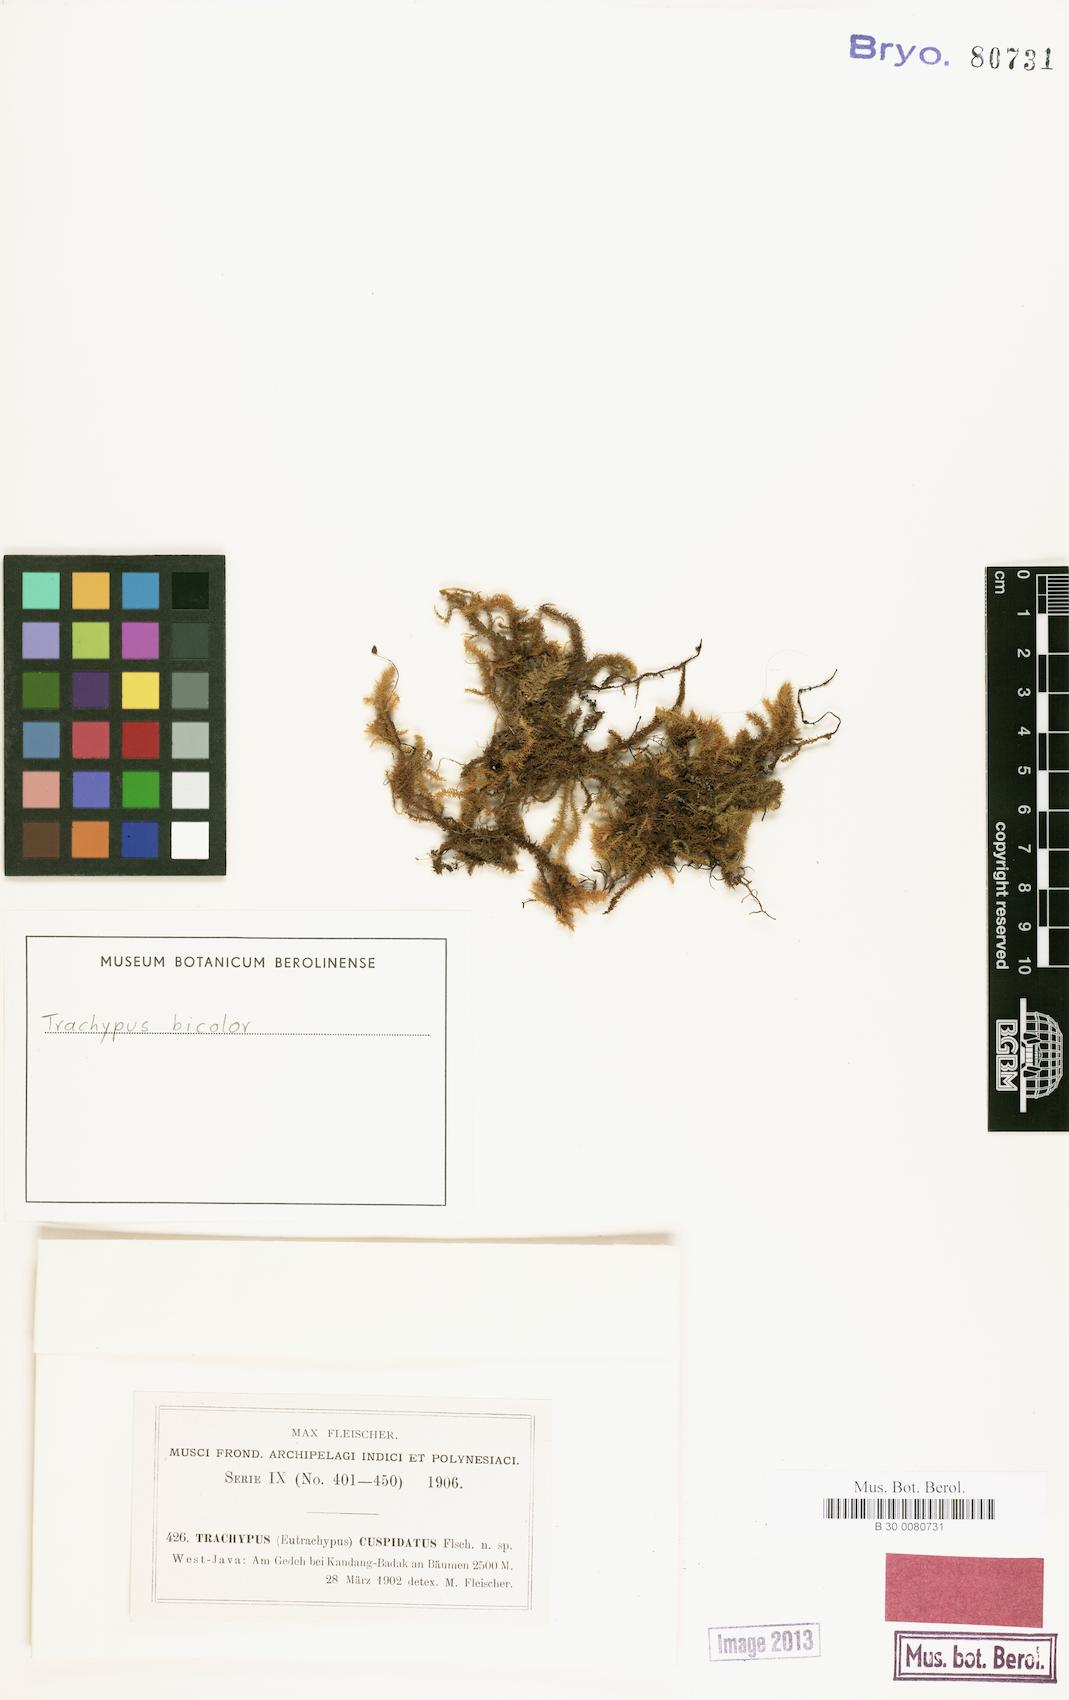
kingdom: Plantae
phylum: Bryophyta
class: Bryopsida
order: Hypnales
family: Meteoriaceae
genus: Trachypus
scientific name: Trachypus bicolor
